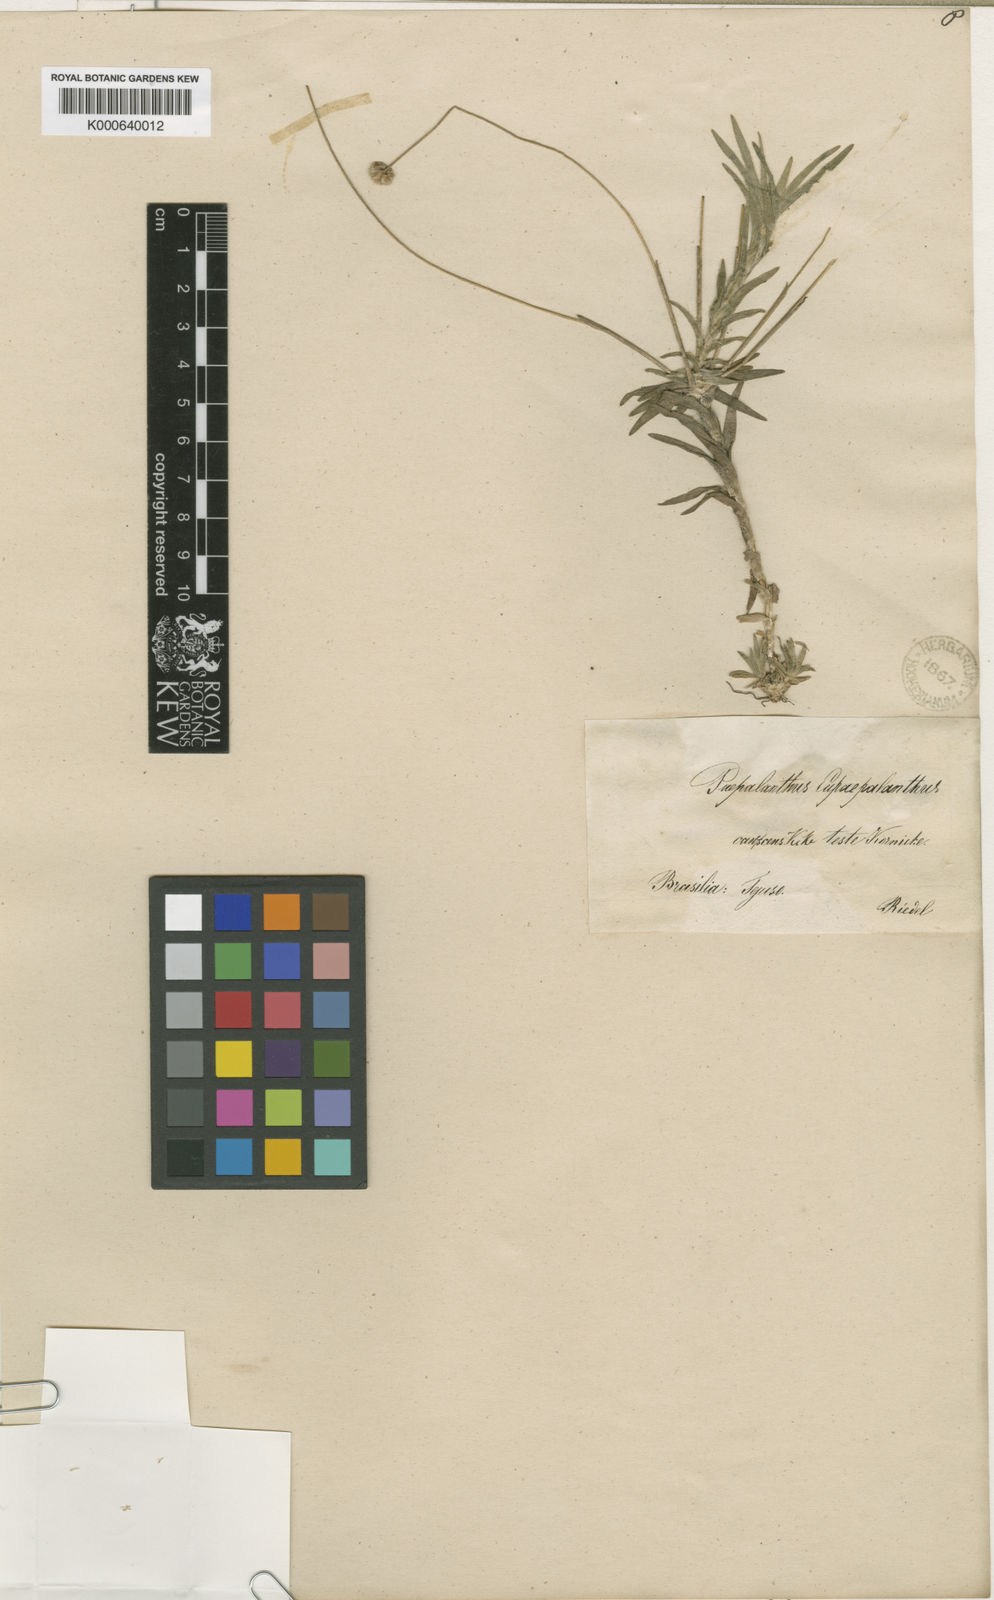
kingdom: Plantae
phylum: Tracheophyta
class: Liliopsida
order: Poales
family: Eriocaulaceae
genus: Paepalanthus
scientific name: Paepalanthus
